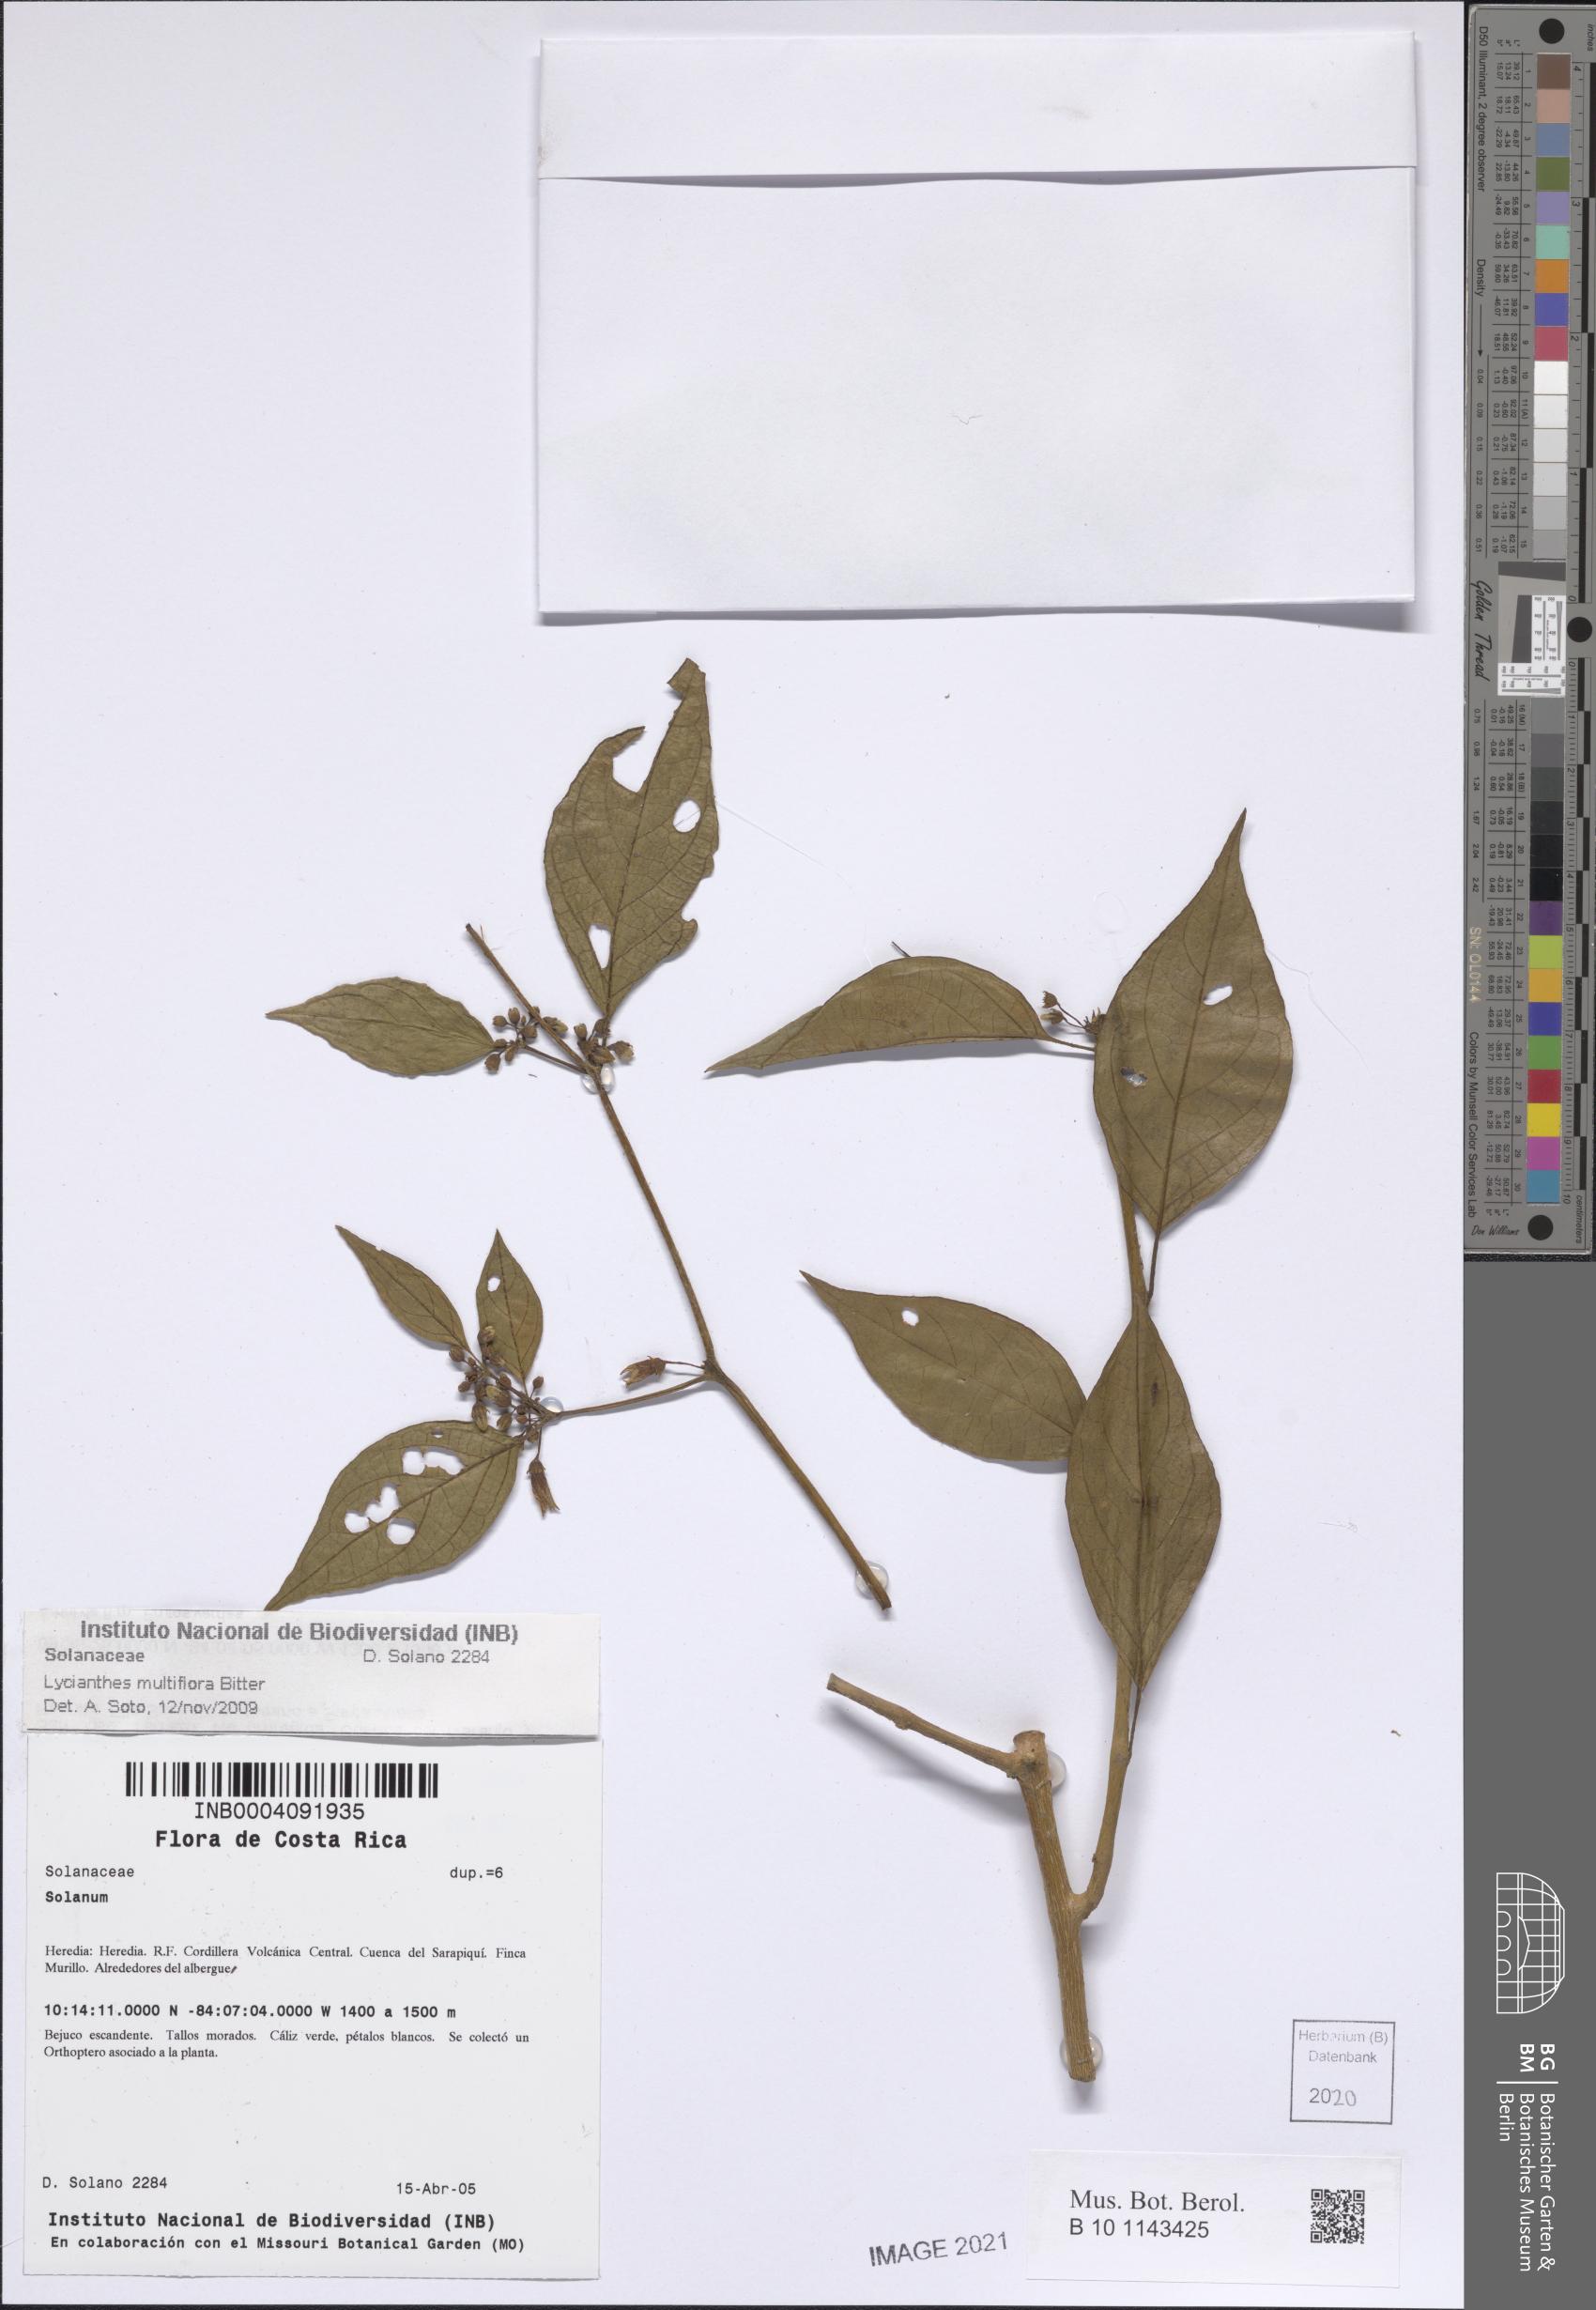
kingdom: Plantae
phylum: Tracheophyta
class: Magnoliopsida
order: Solanales
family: Solanaceae
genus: Lycianthes
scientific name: Lycianthes multiflora
